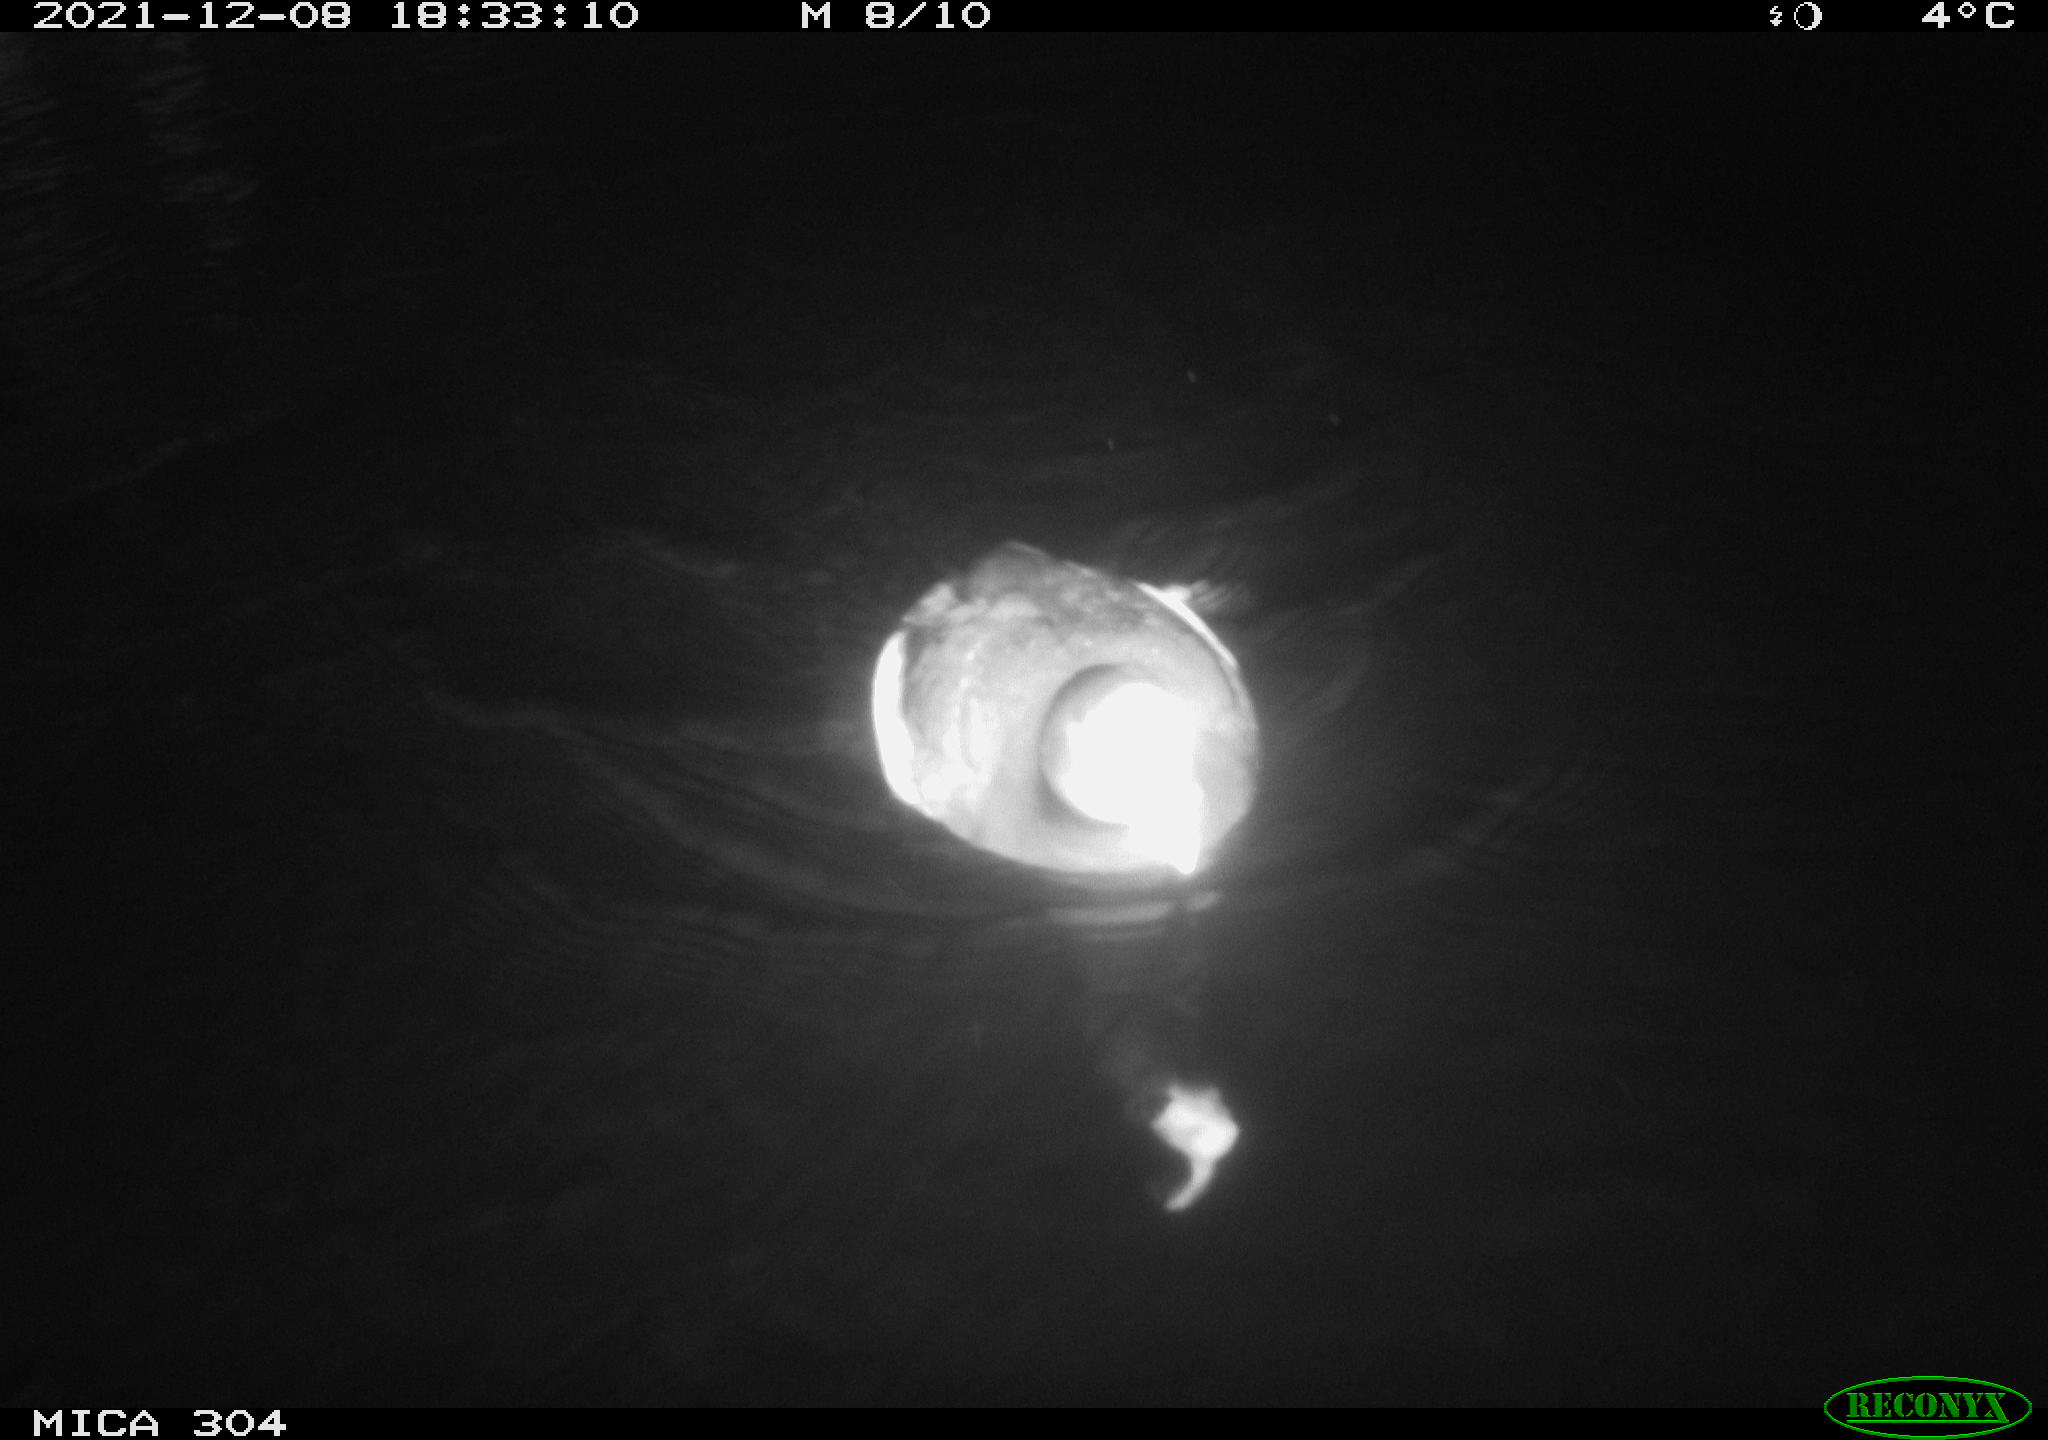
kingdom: Animalia
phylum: Chordata
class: Aves
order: Anseriformes
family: Anatidae
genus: Anas
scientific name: Anas
